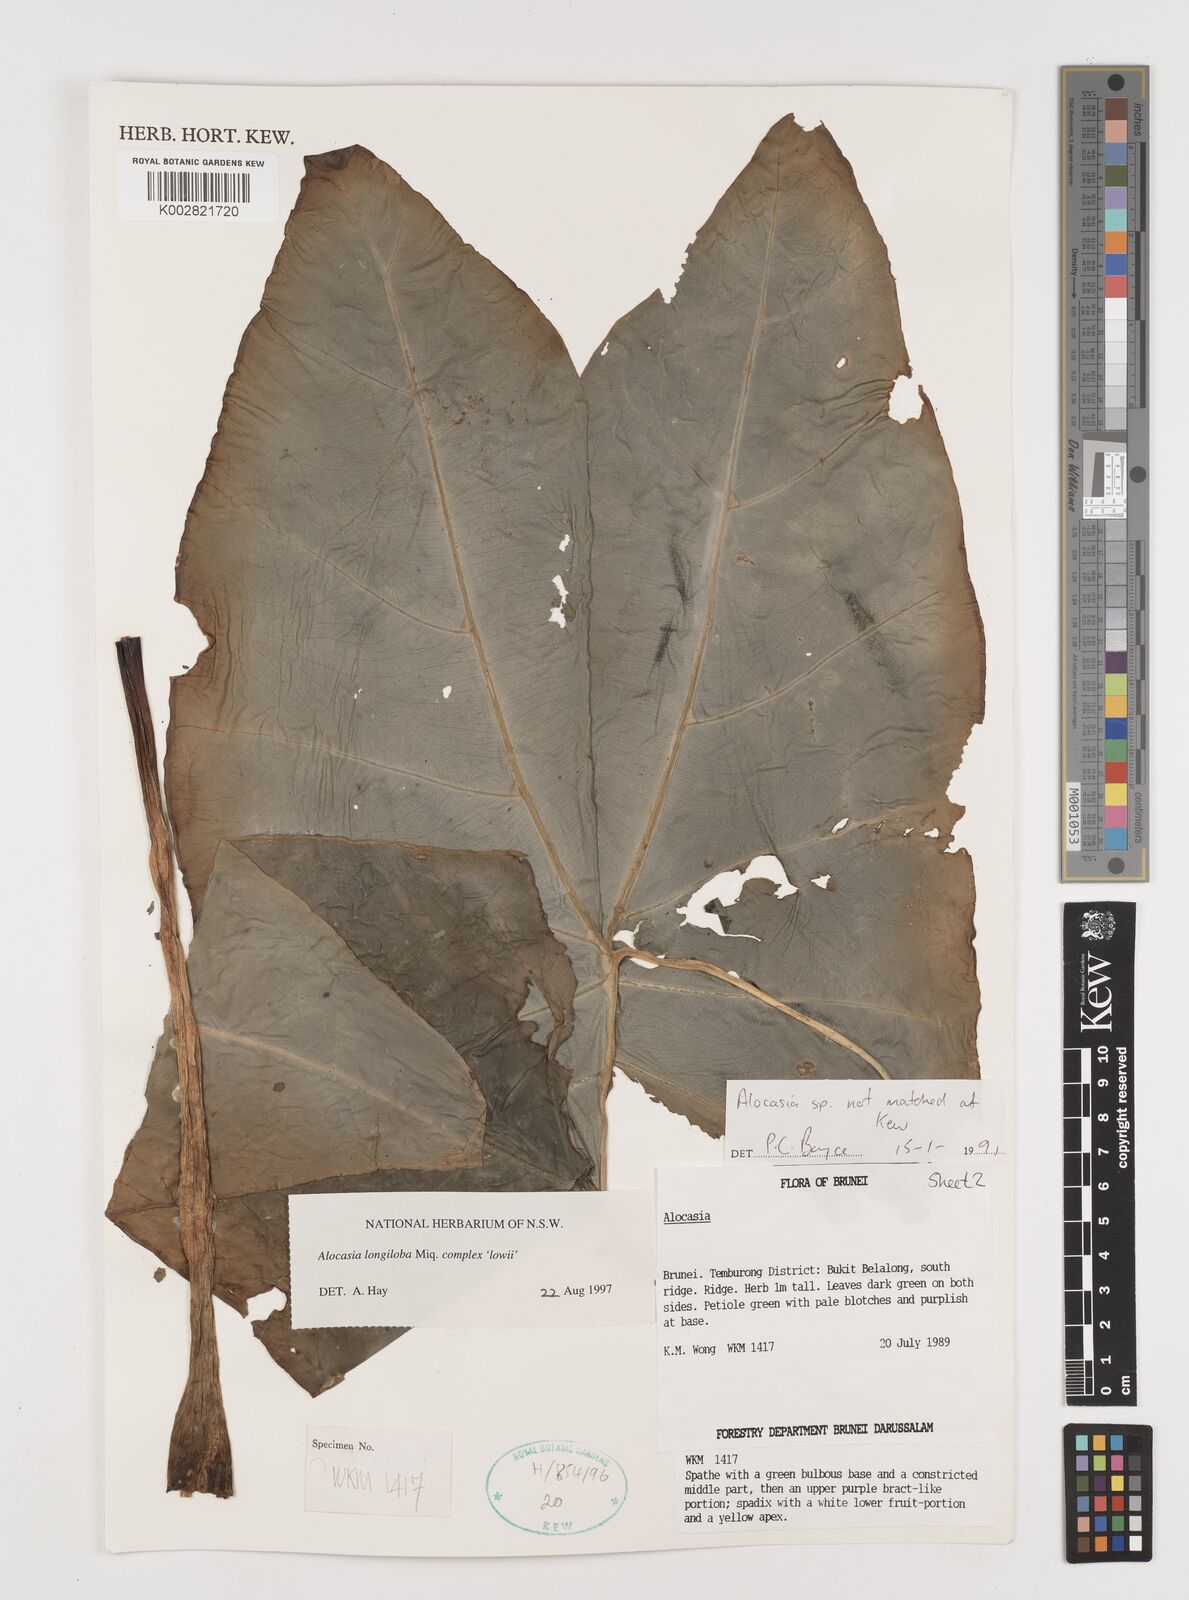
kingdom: Plantae
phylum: Tracheophyta
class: Liliopsida
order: Alismatales
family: Araceae
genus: Alocasia
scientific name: Alocasia longiloba
